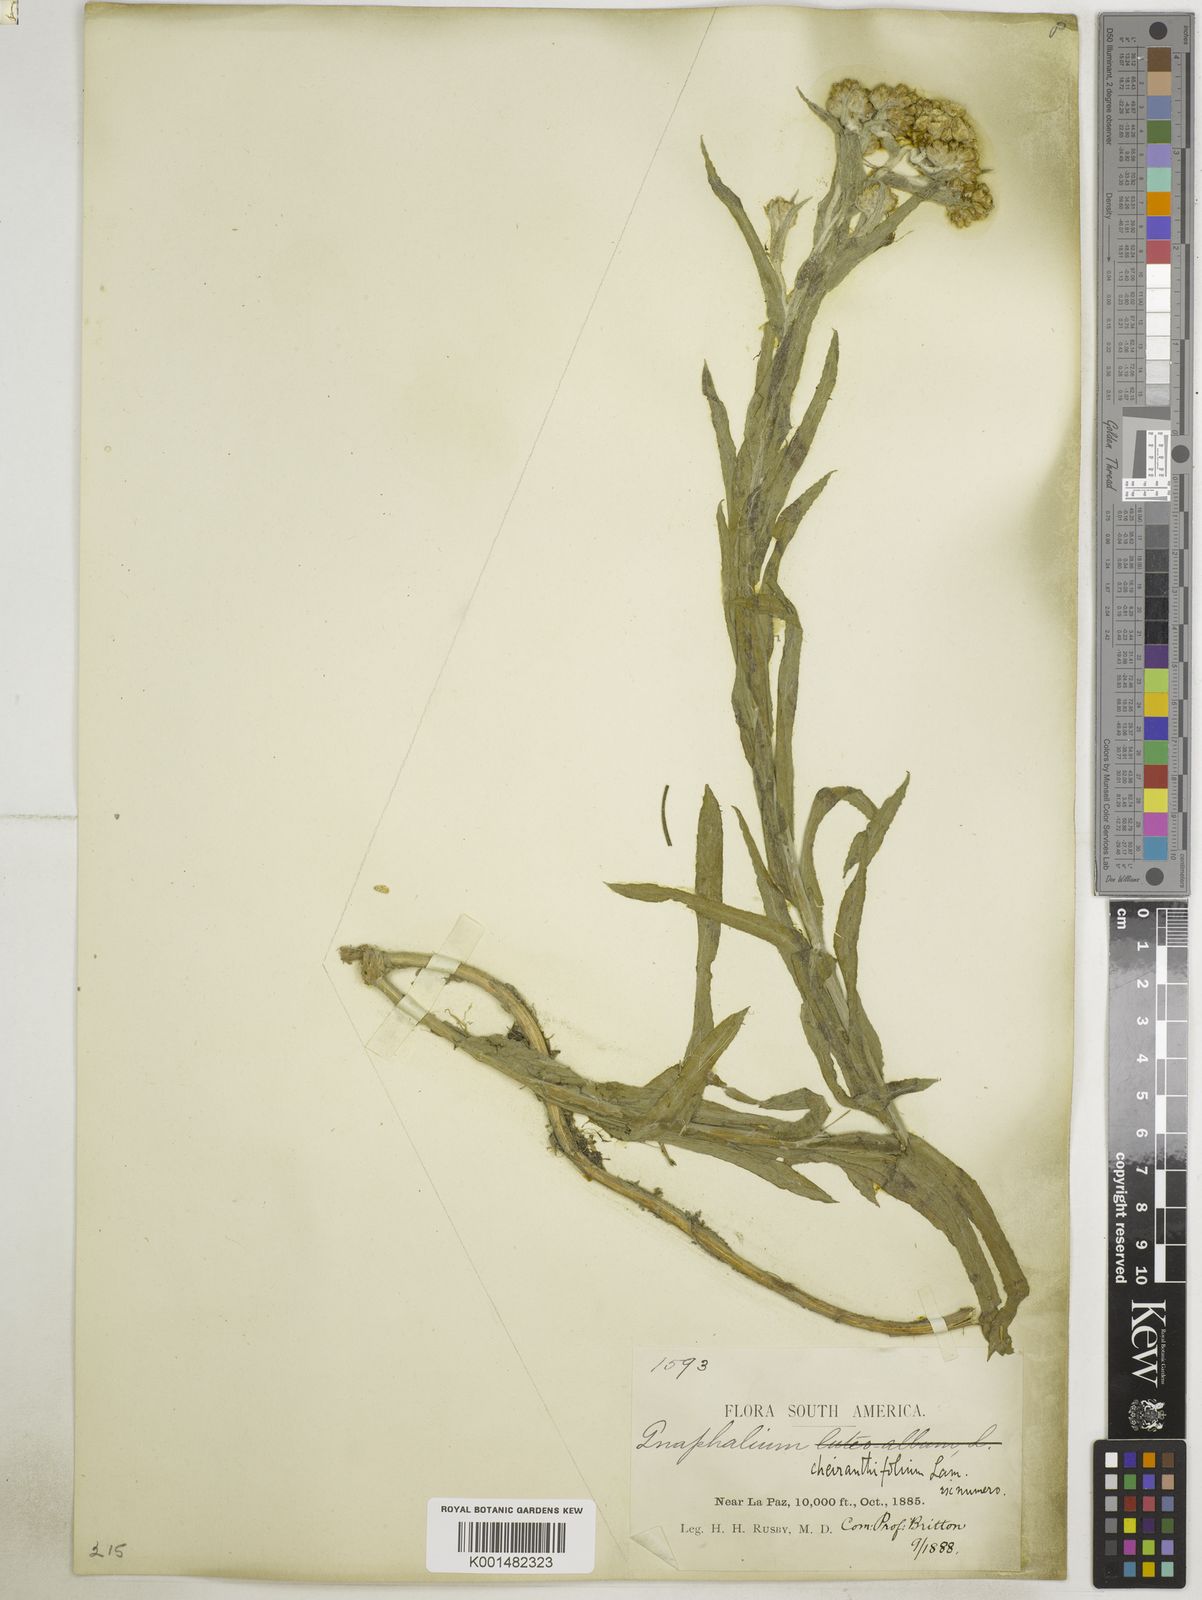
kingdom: Plantae
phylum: Tracheophyta
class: Magnoliopsida
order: Asterales
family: Asteraceae
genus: Pseudognaphalium
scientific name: Pseudognaphalium cheiranthifolium
